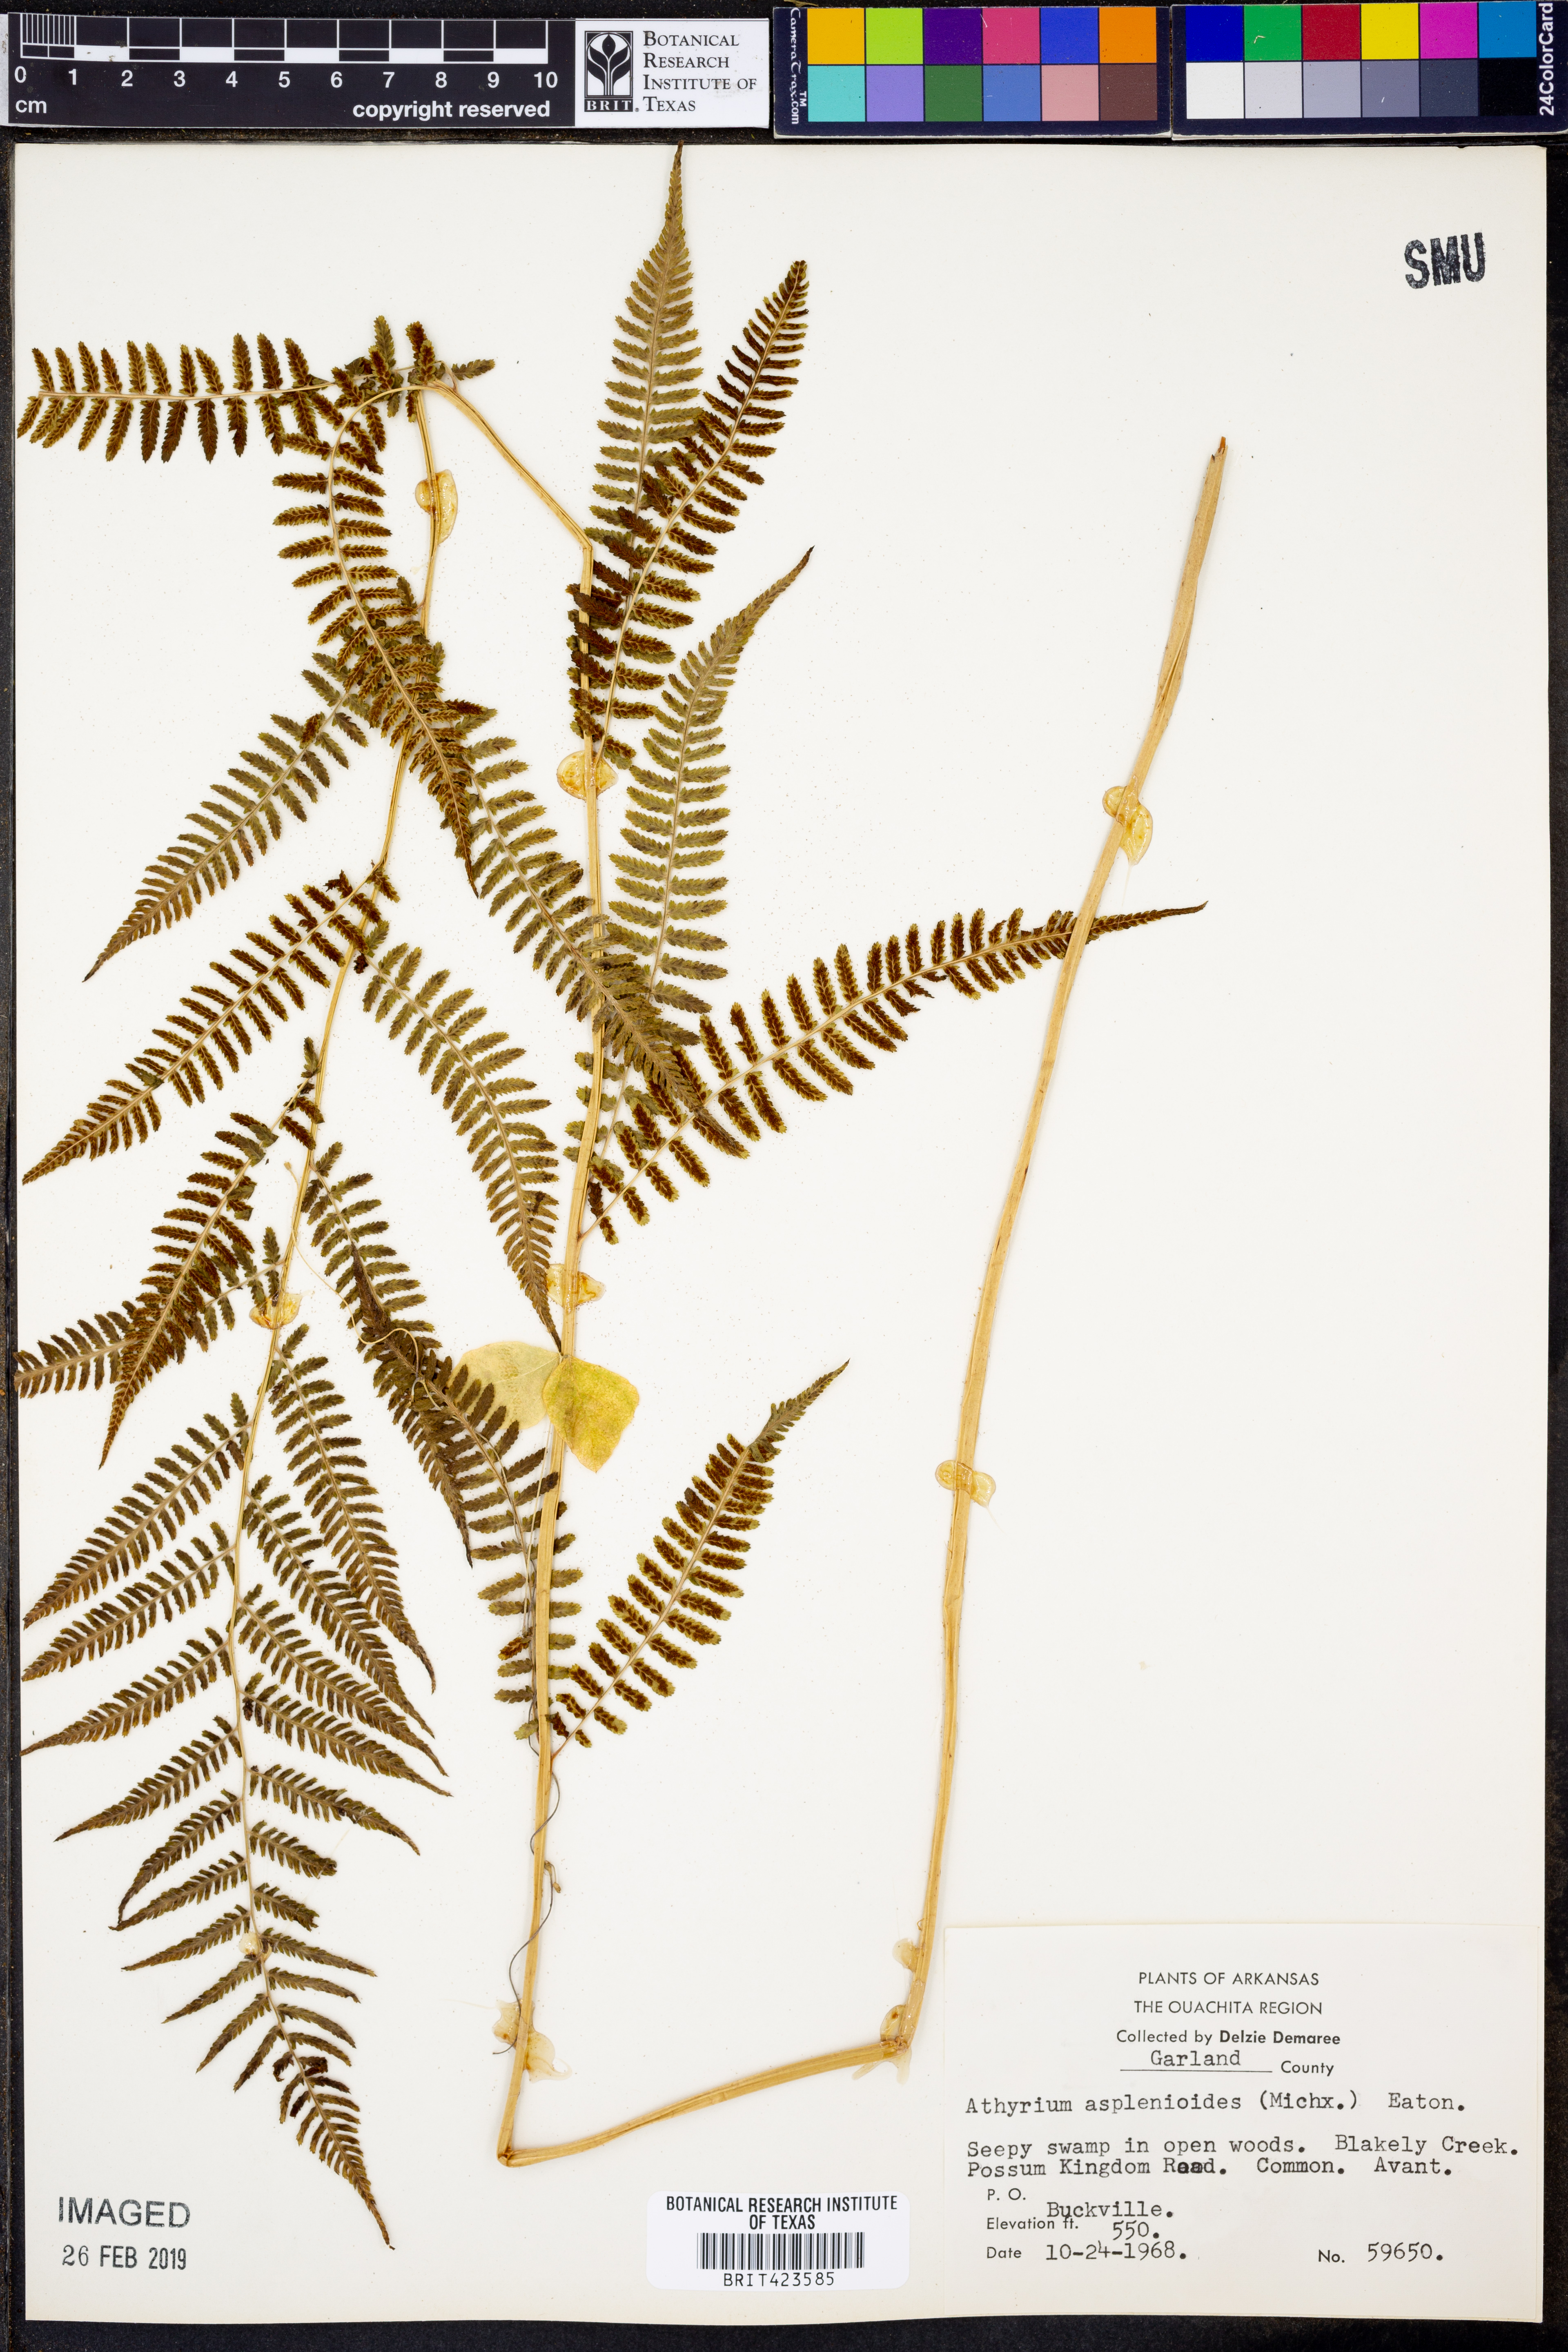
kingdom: Plantae
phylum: Tracheophyta
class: Polypodiopsida
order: Polypodiales
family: Athyriaceae
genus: Athyrium
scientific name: Athyrium asplenioides
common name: Southern lady fern
